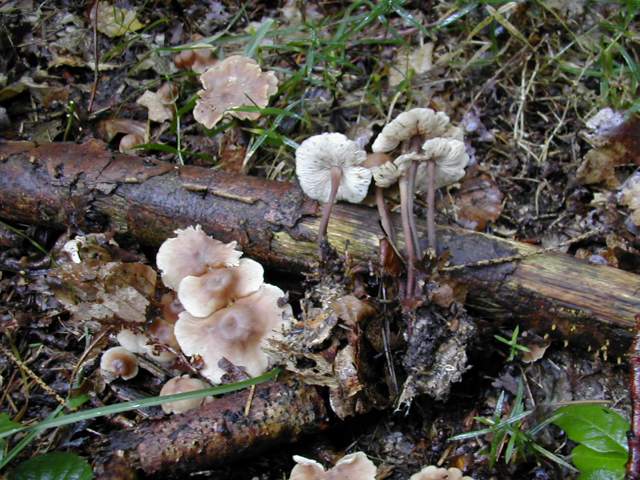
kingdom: Fungi
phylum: Basidiomycota
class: Agaricomycetes
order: Agaricales
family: Omphalotaceae
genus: Collybiopsis
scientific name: Collybiopsis confluens
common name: knippe-fladhat
